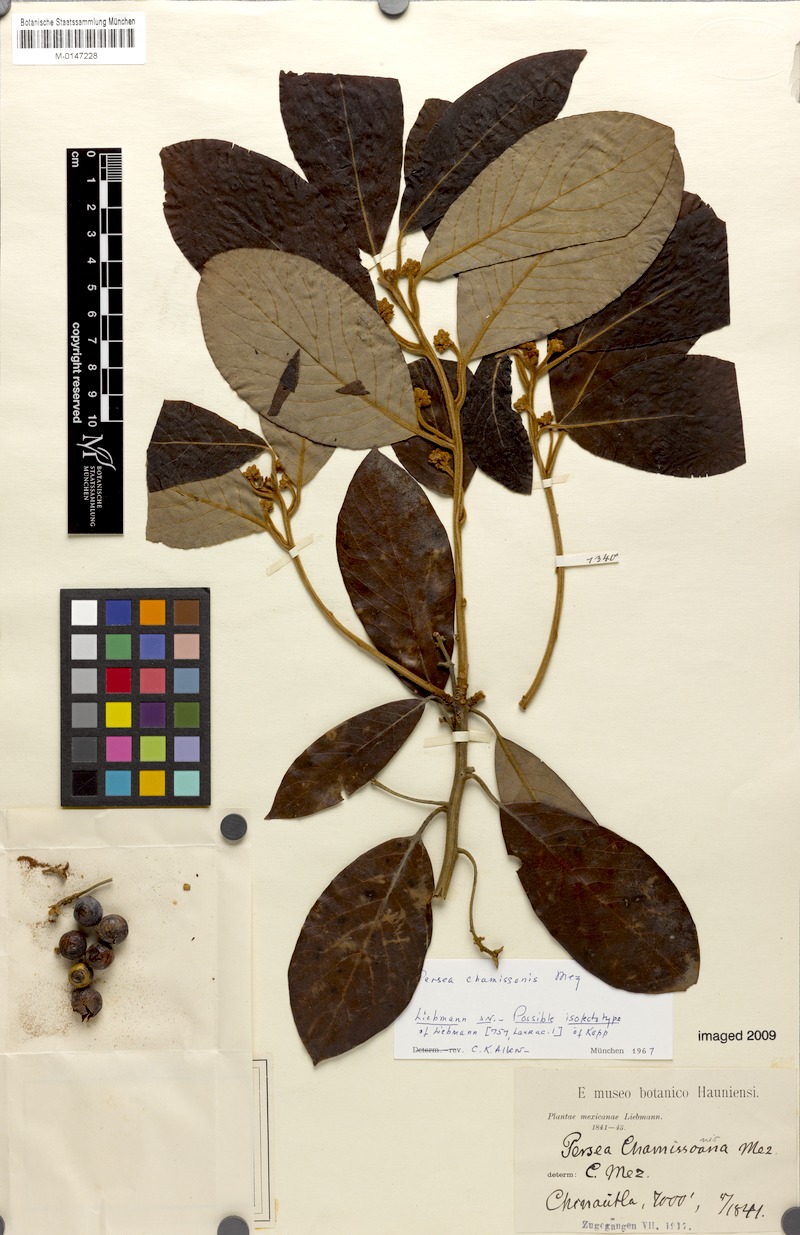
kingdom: Plantae
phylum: Tracheophyta
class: Magnoliopsida
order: Laurales
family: Lauraceae
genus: Persea
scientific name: Persea chamissonis
